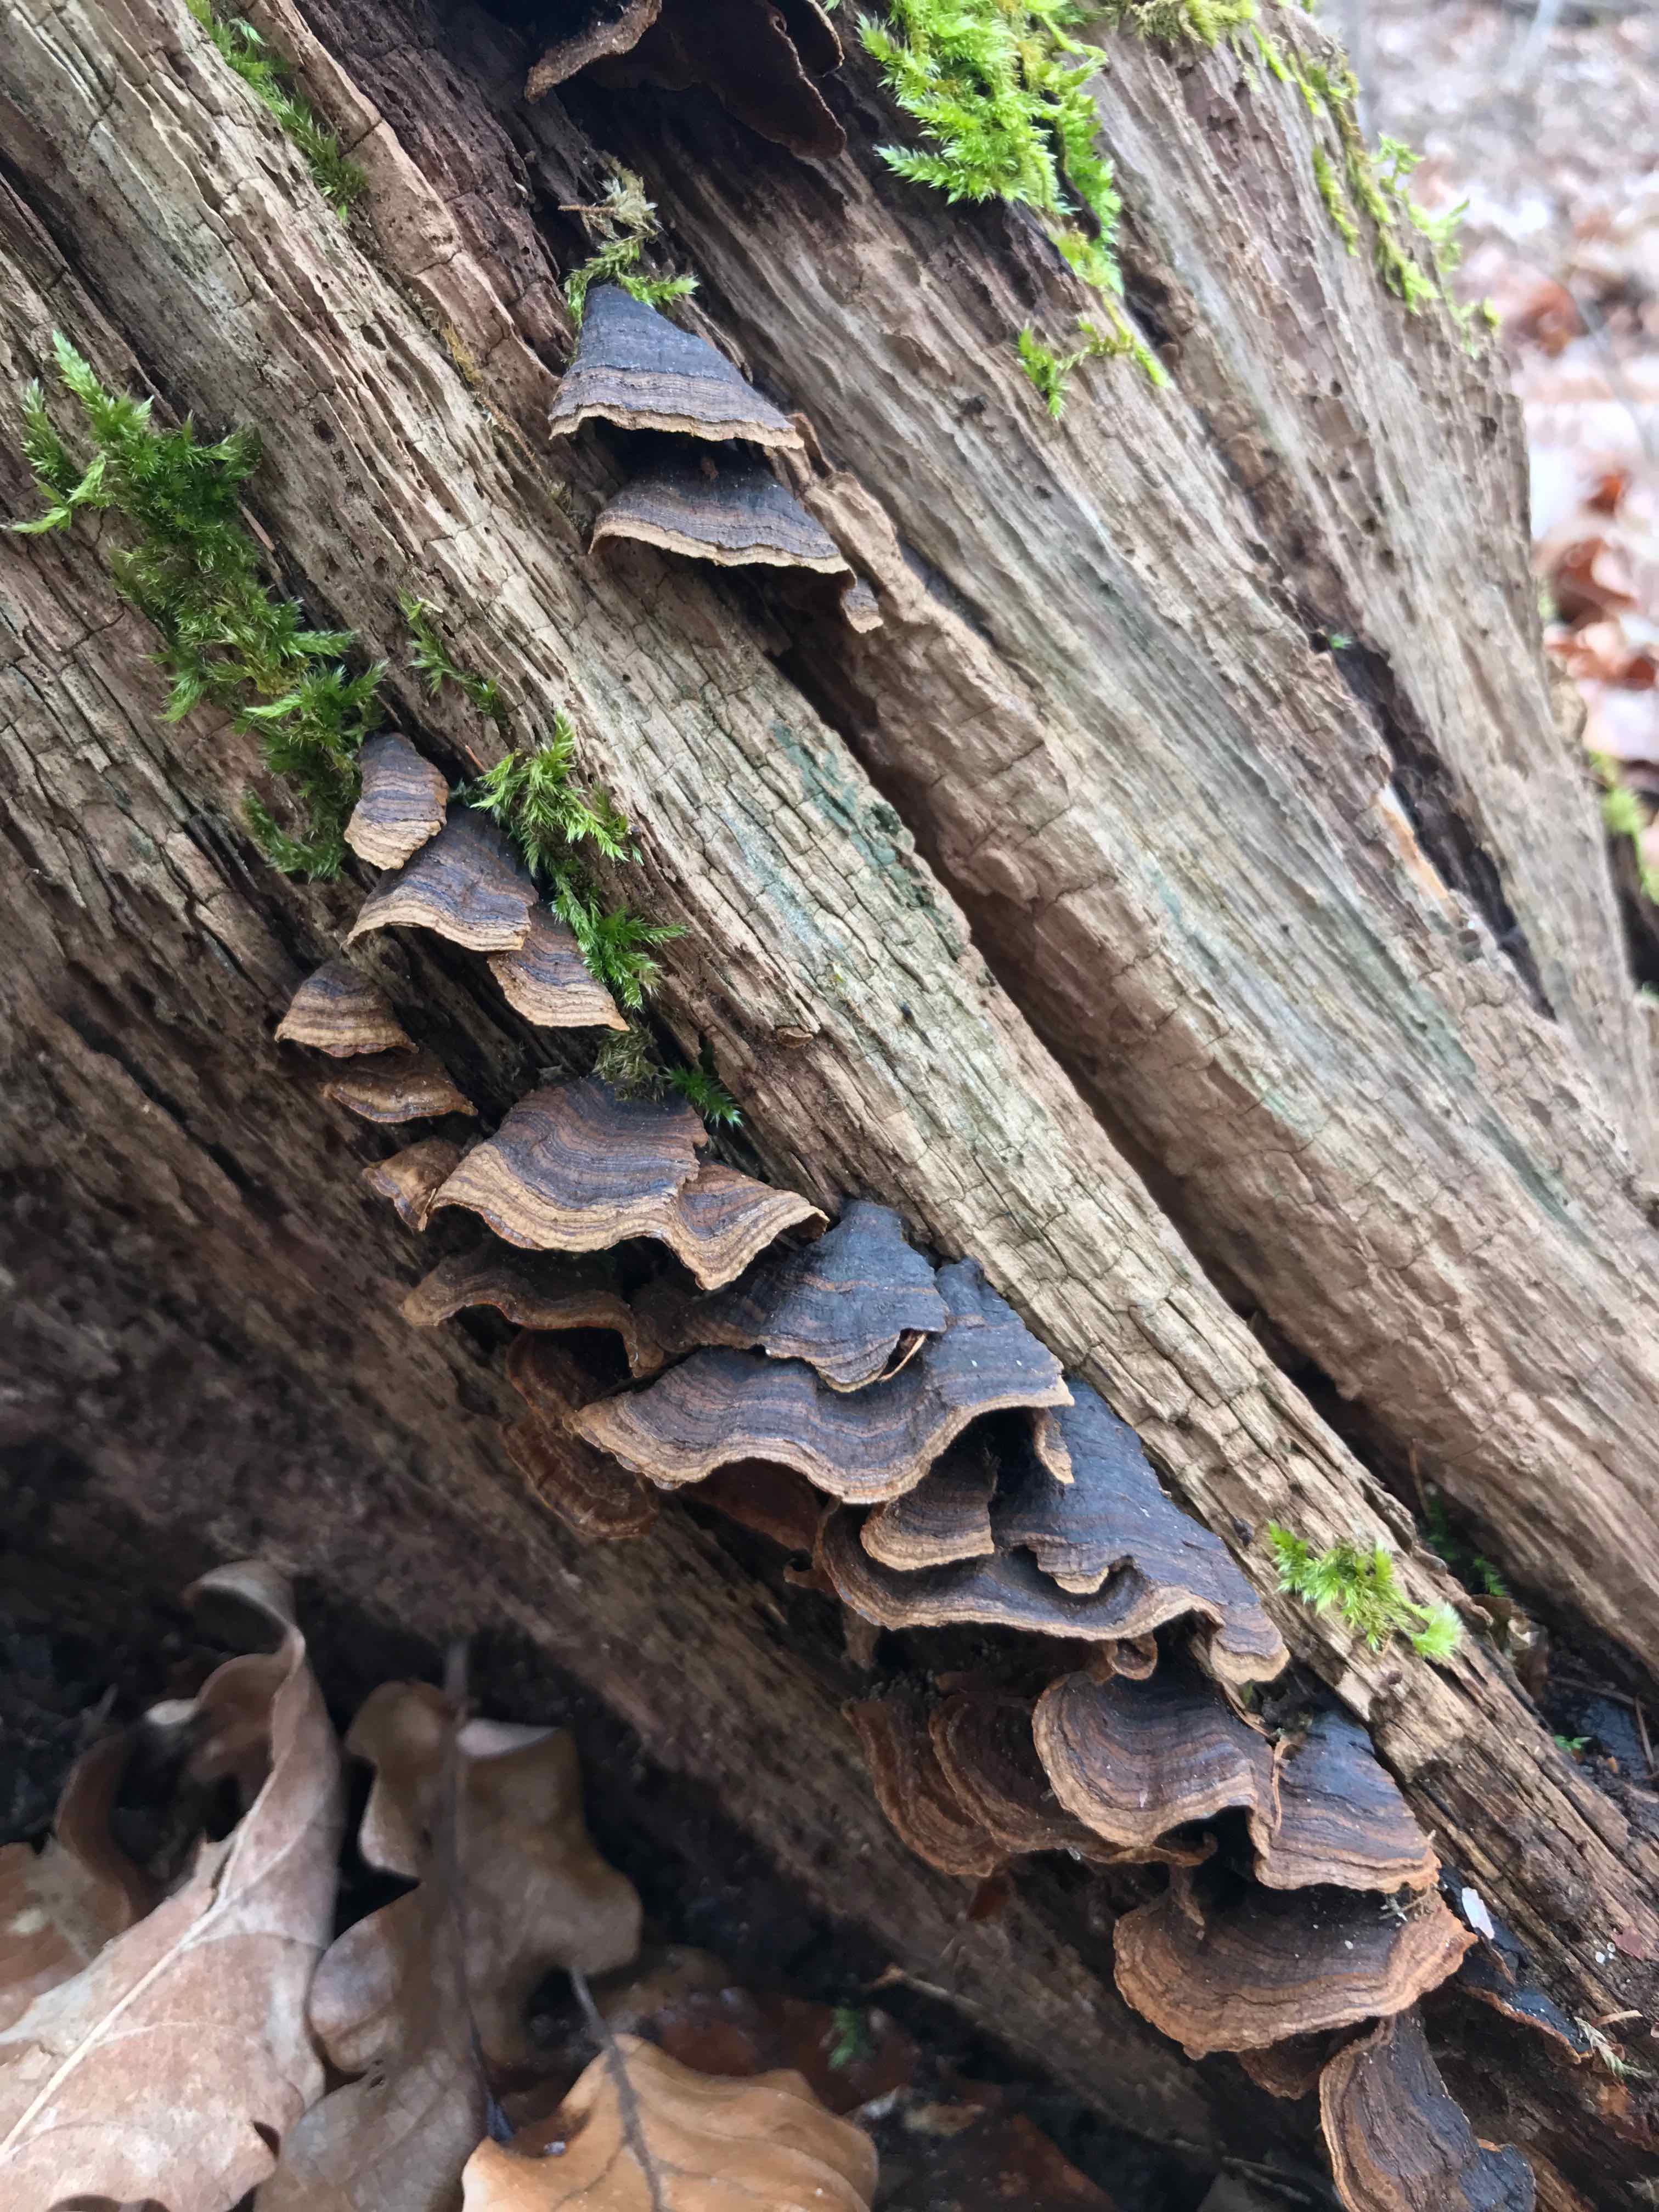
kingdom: Fungi
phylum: Basidiomycota
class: Agaricomycetes
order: Hymenochaetales
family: Hymenochaetaceae
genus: Hymenochaete
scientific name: Hymenochaete rubiginosa
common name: stiv ruslædersvamp
